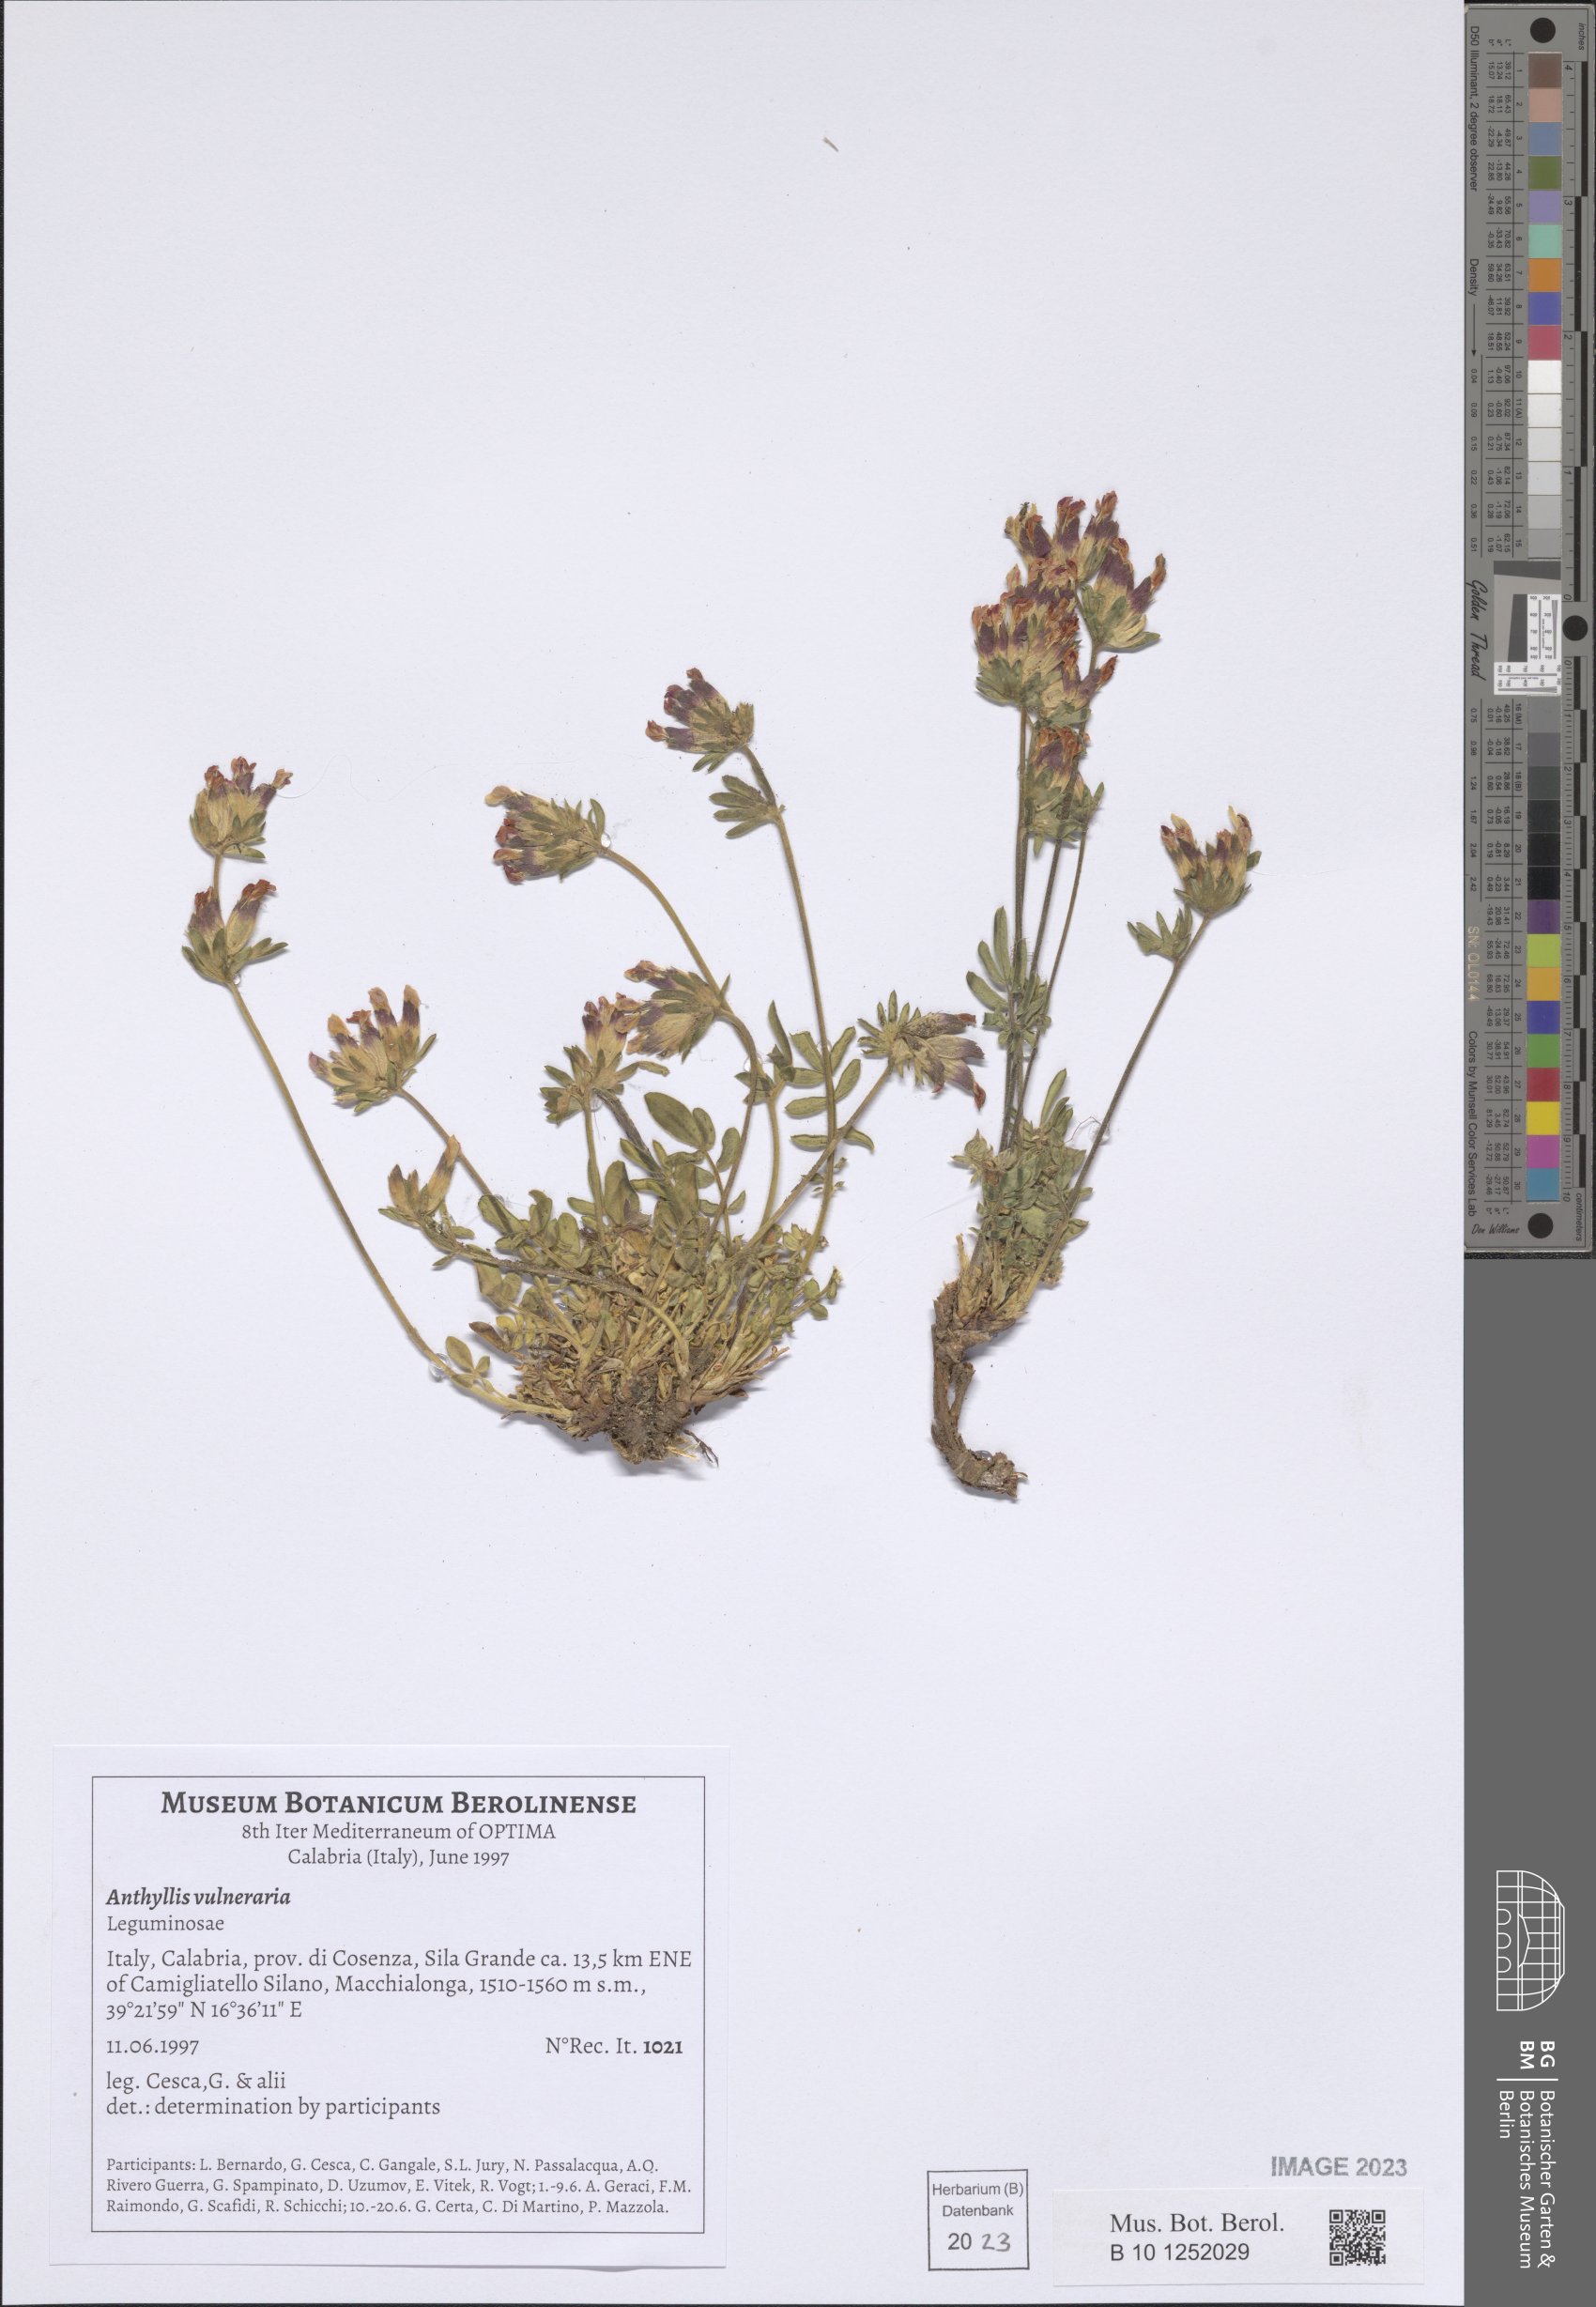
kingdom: Plantae
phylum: Tracheophyta
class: Magnoliopsida
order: Fabales
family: Fabaceae
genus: Anthyllis
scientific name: Anthyllis vulneraria
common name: Kidney vetch
